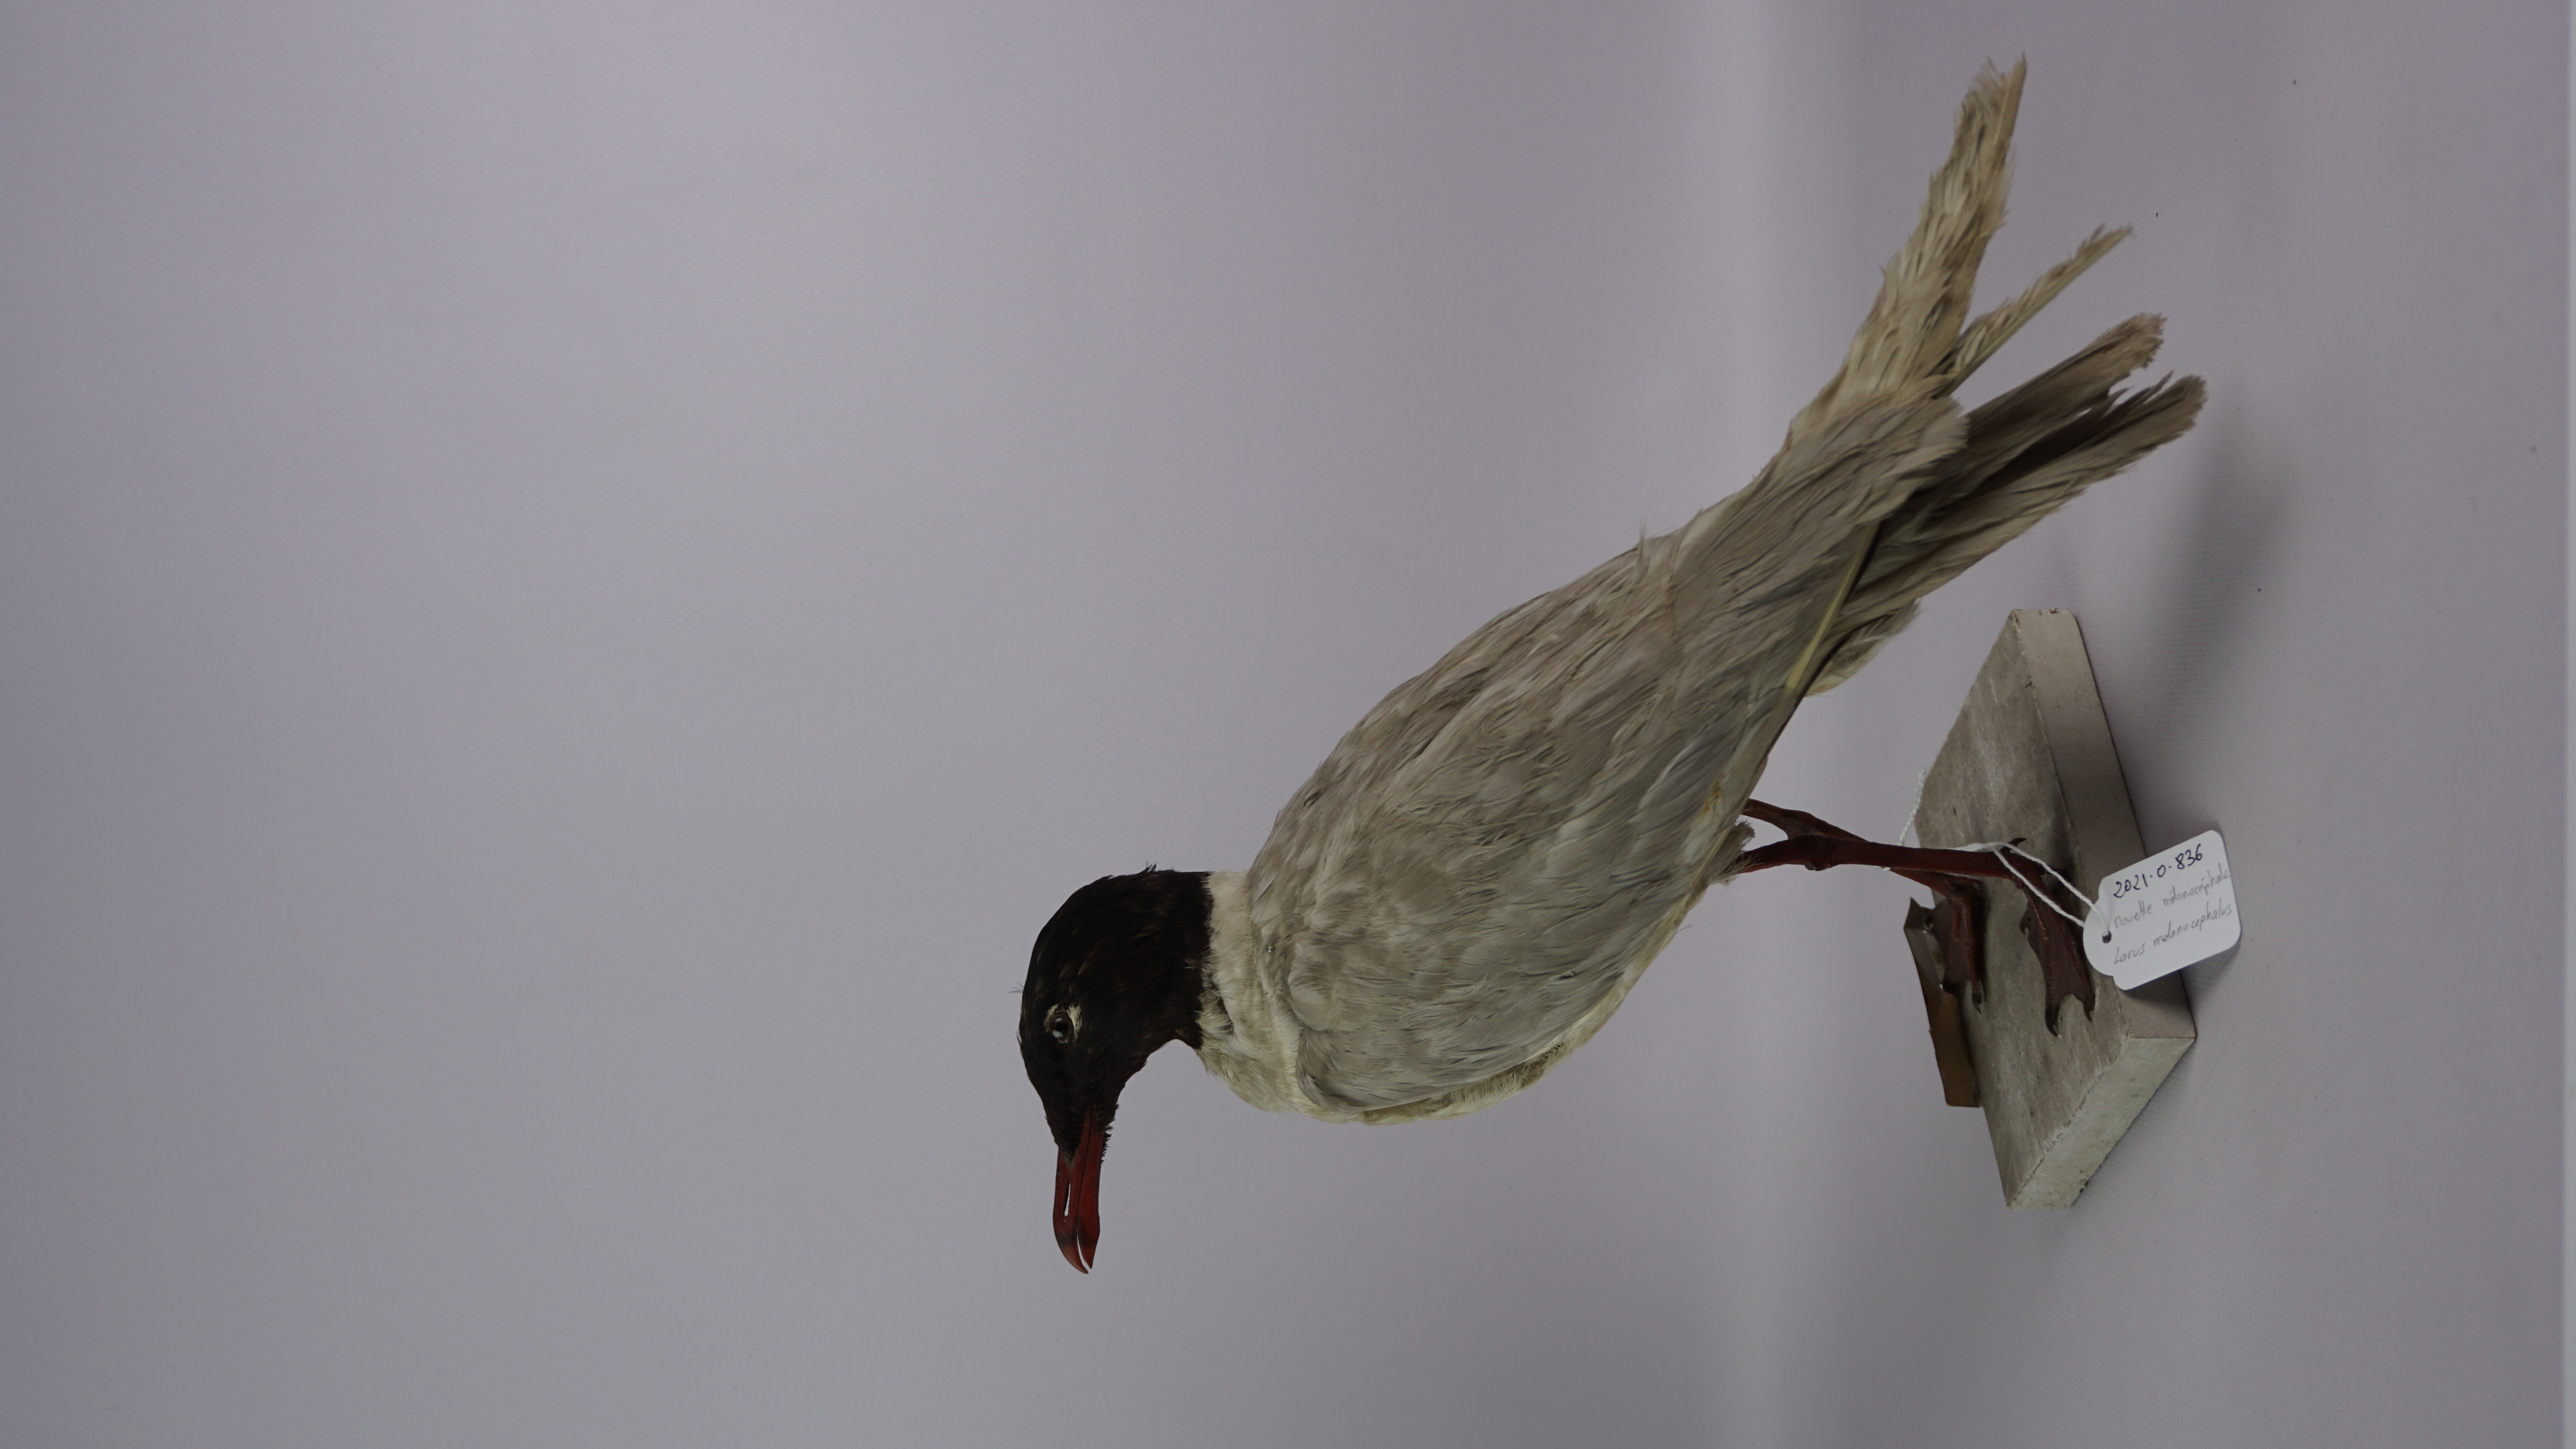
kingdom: Animalia
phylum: Chordata
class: Aves
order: Charadriiformes
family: Laridae
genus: Ichthyaetus
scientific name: Ichthyaetus melanocephalus
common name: Mediterranean gull
